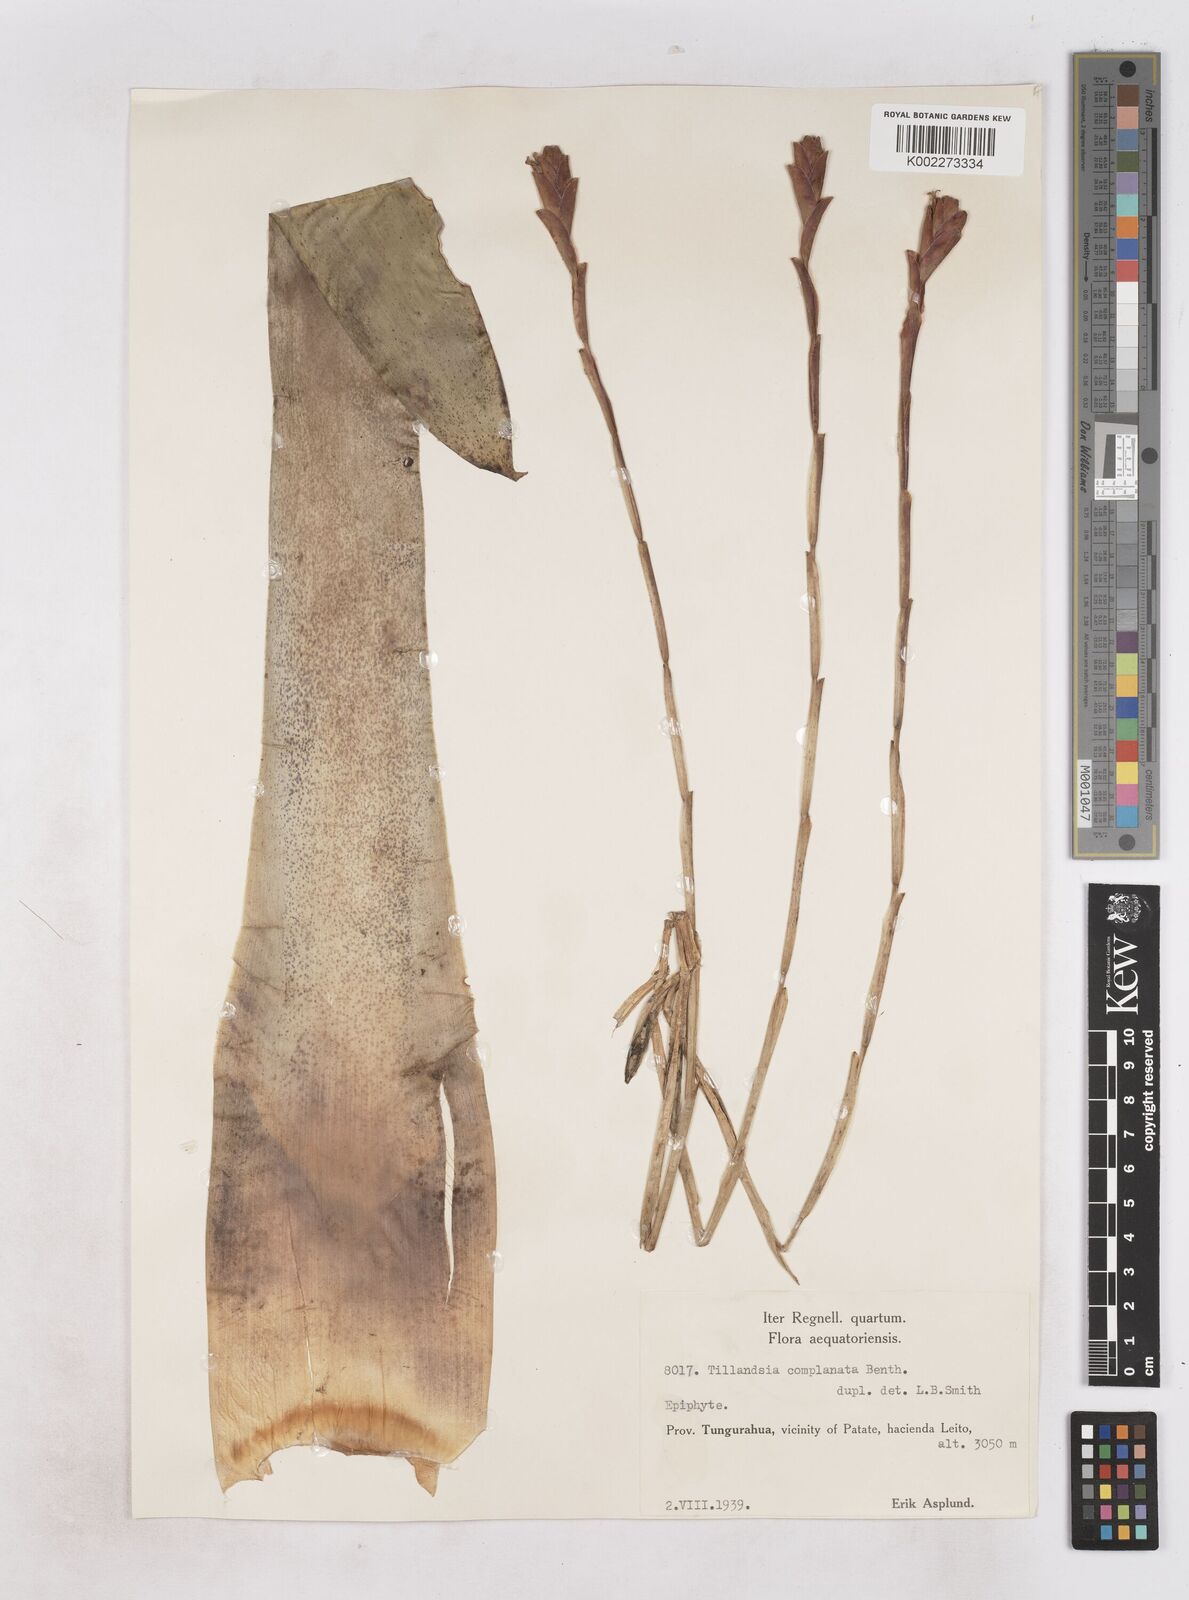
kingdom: Plantae
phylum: Tracheophyta
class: Liliopsida
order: Poales
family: Bromeliaceae
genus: Tillandsia
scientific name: Tillandsia complanata
